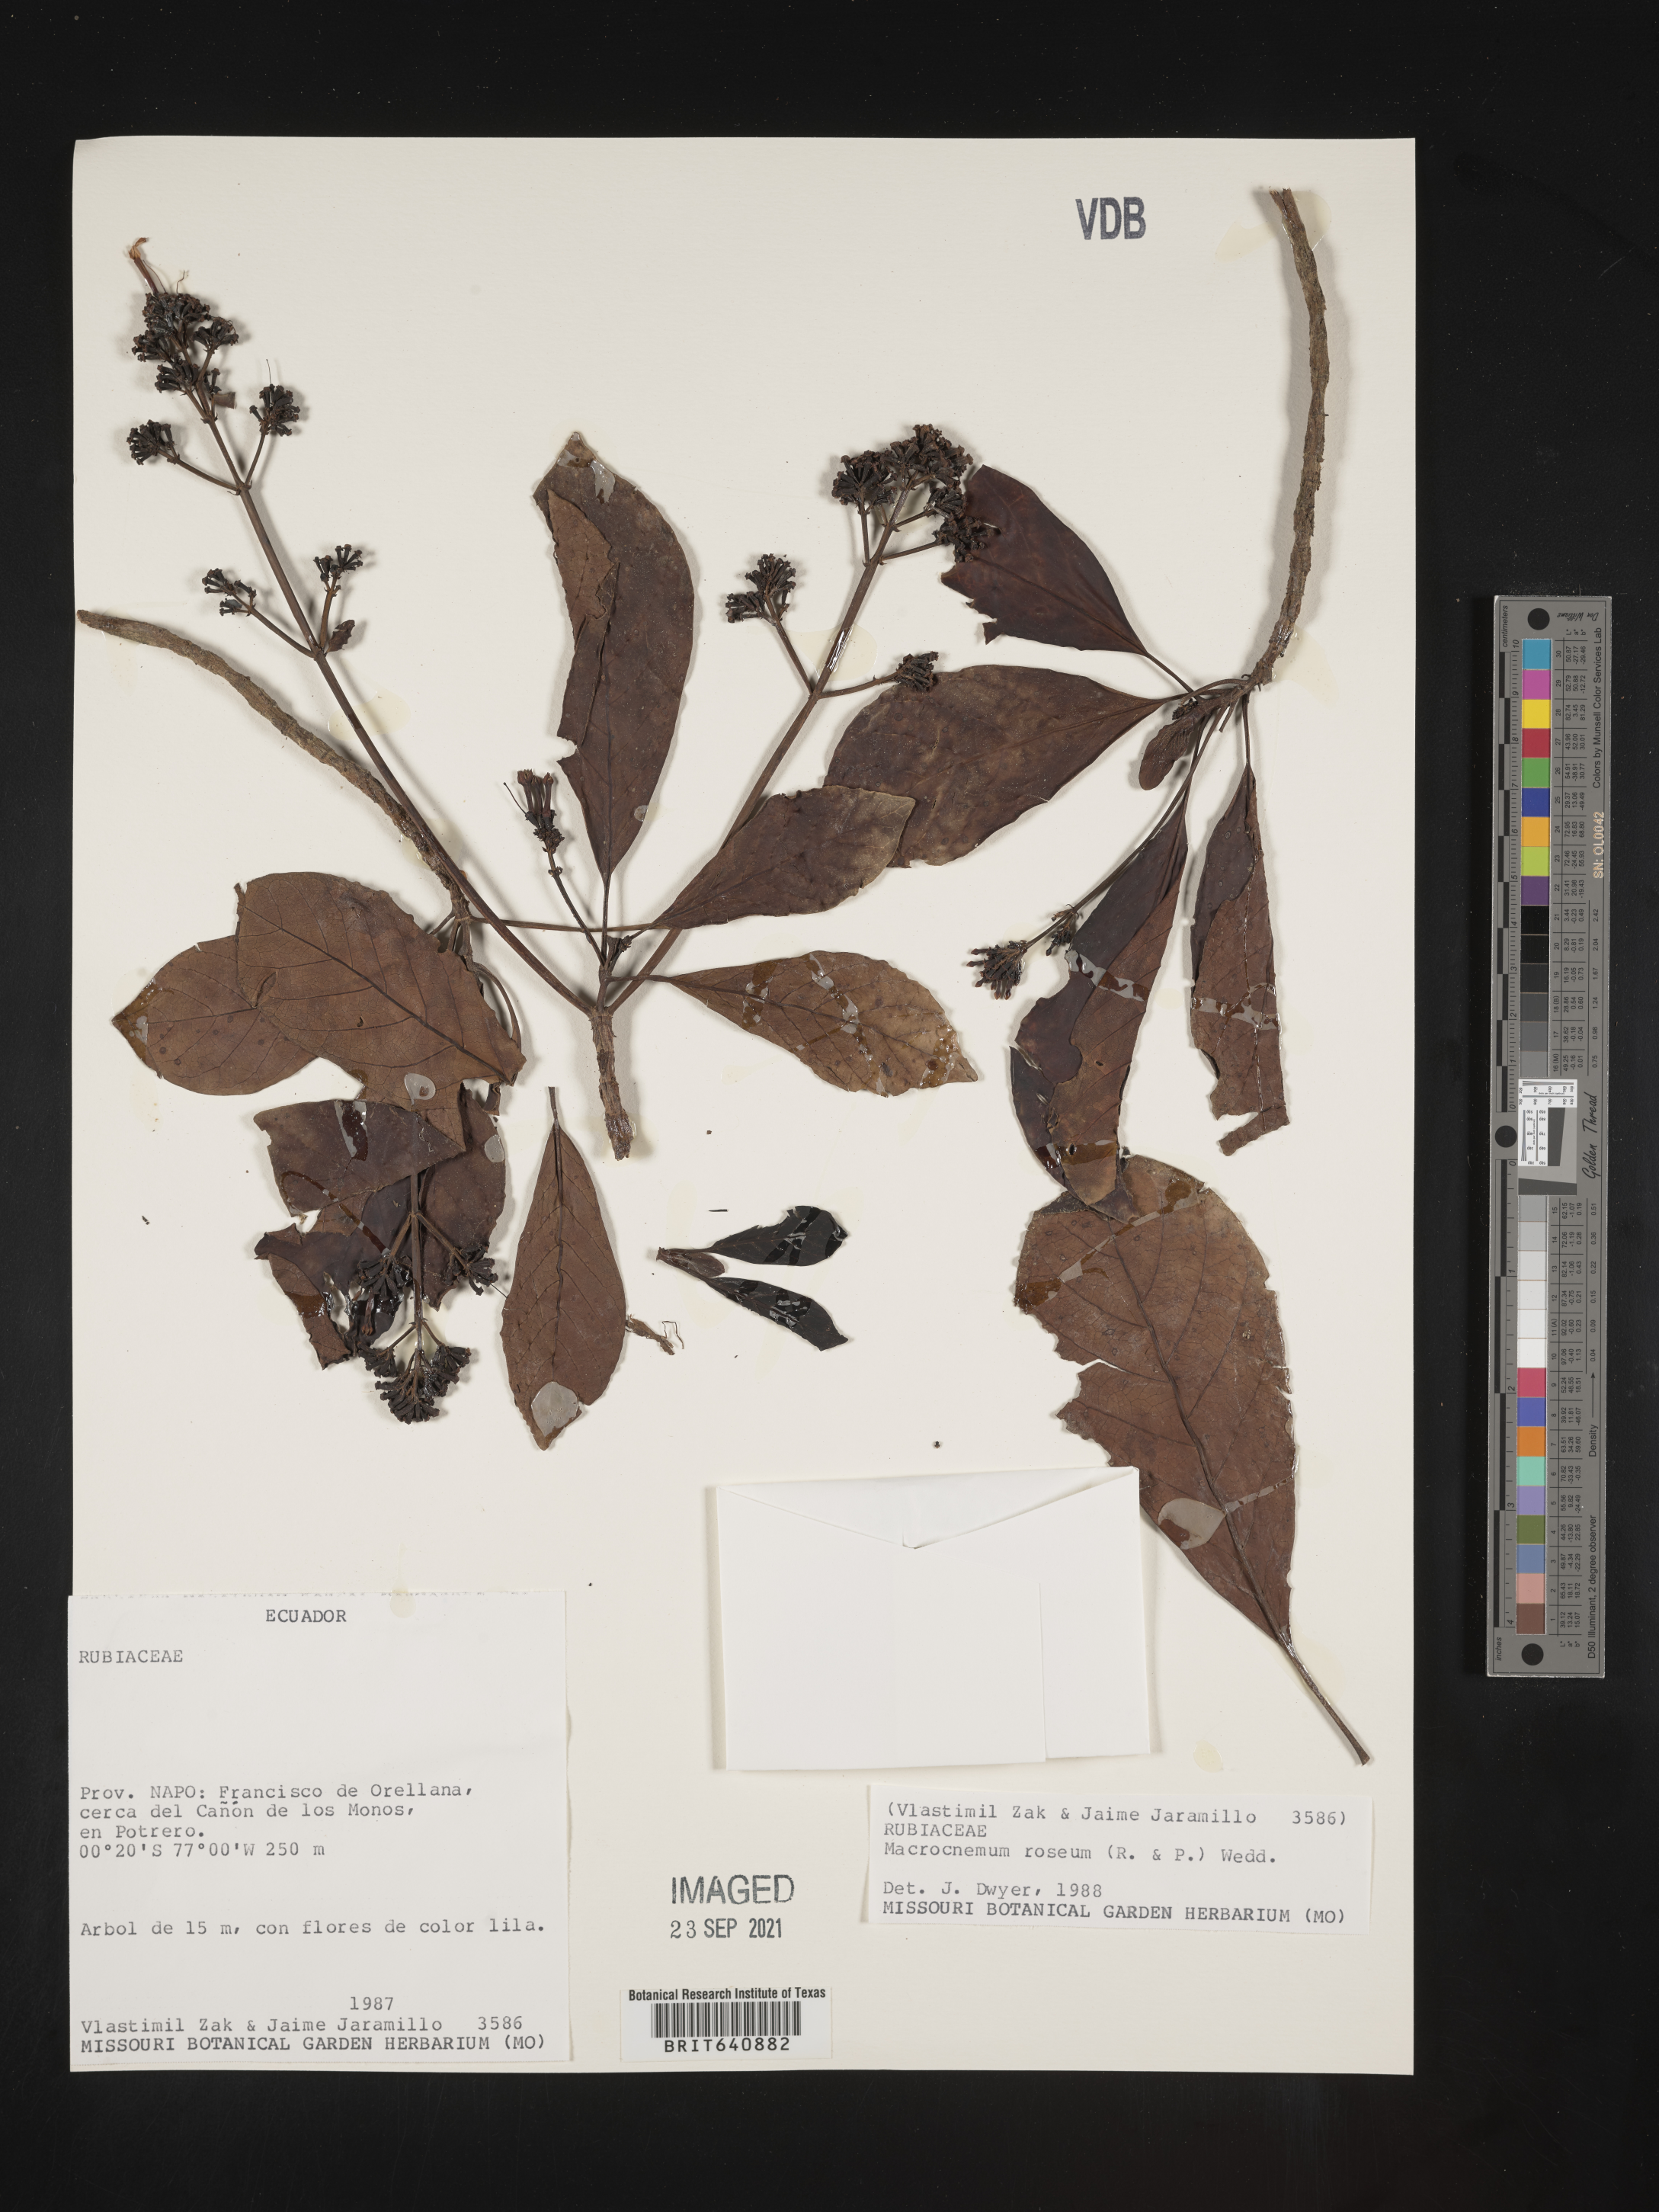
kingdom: Plantae
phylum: Tracheophyta
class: Magnoliopsida
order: Gentianales
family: Rubiaceae
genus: Macrocnemum
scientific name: Macrocnemum
